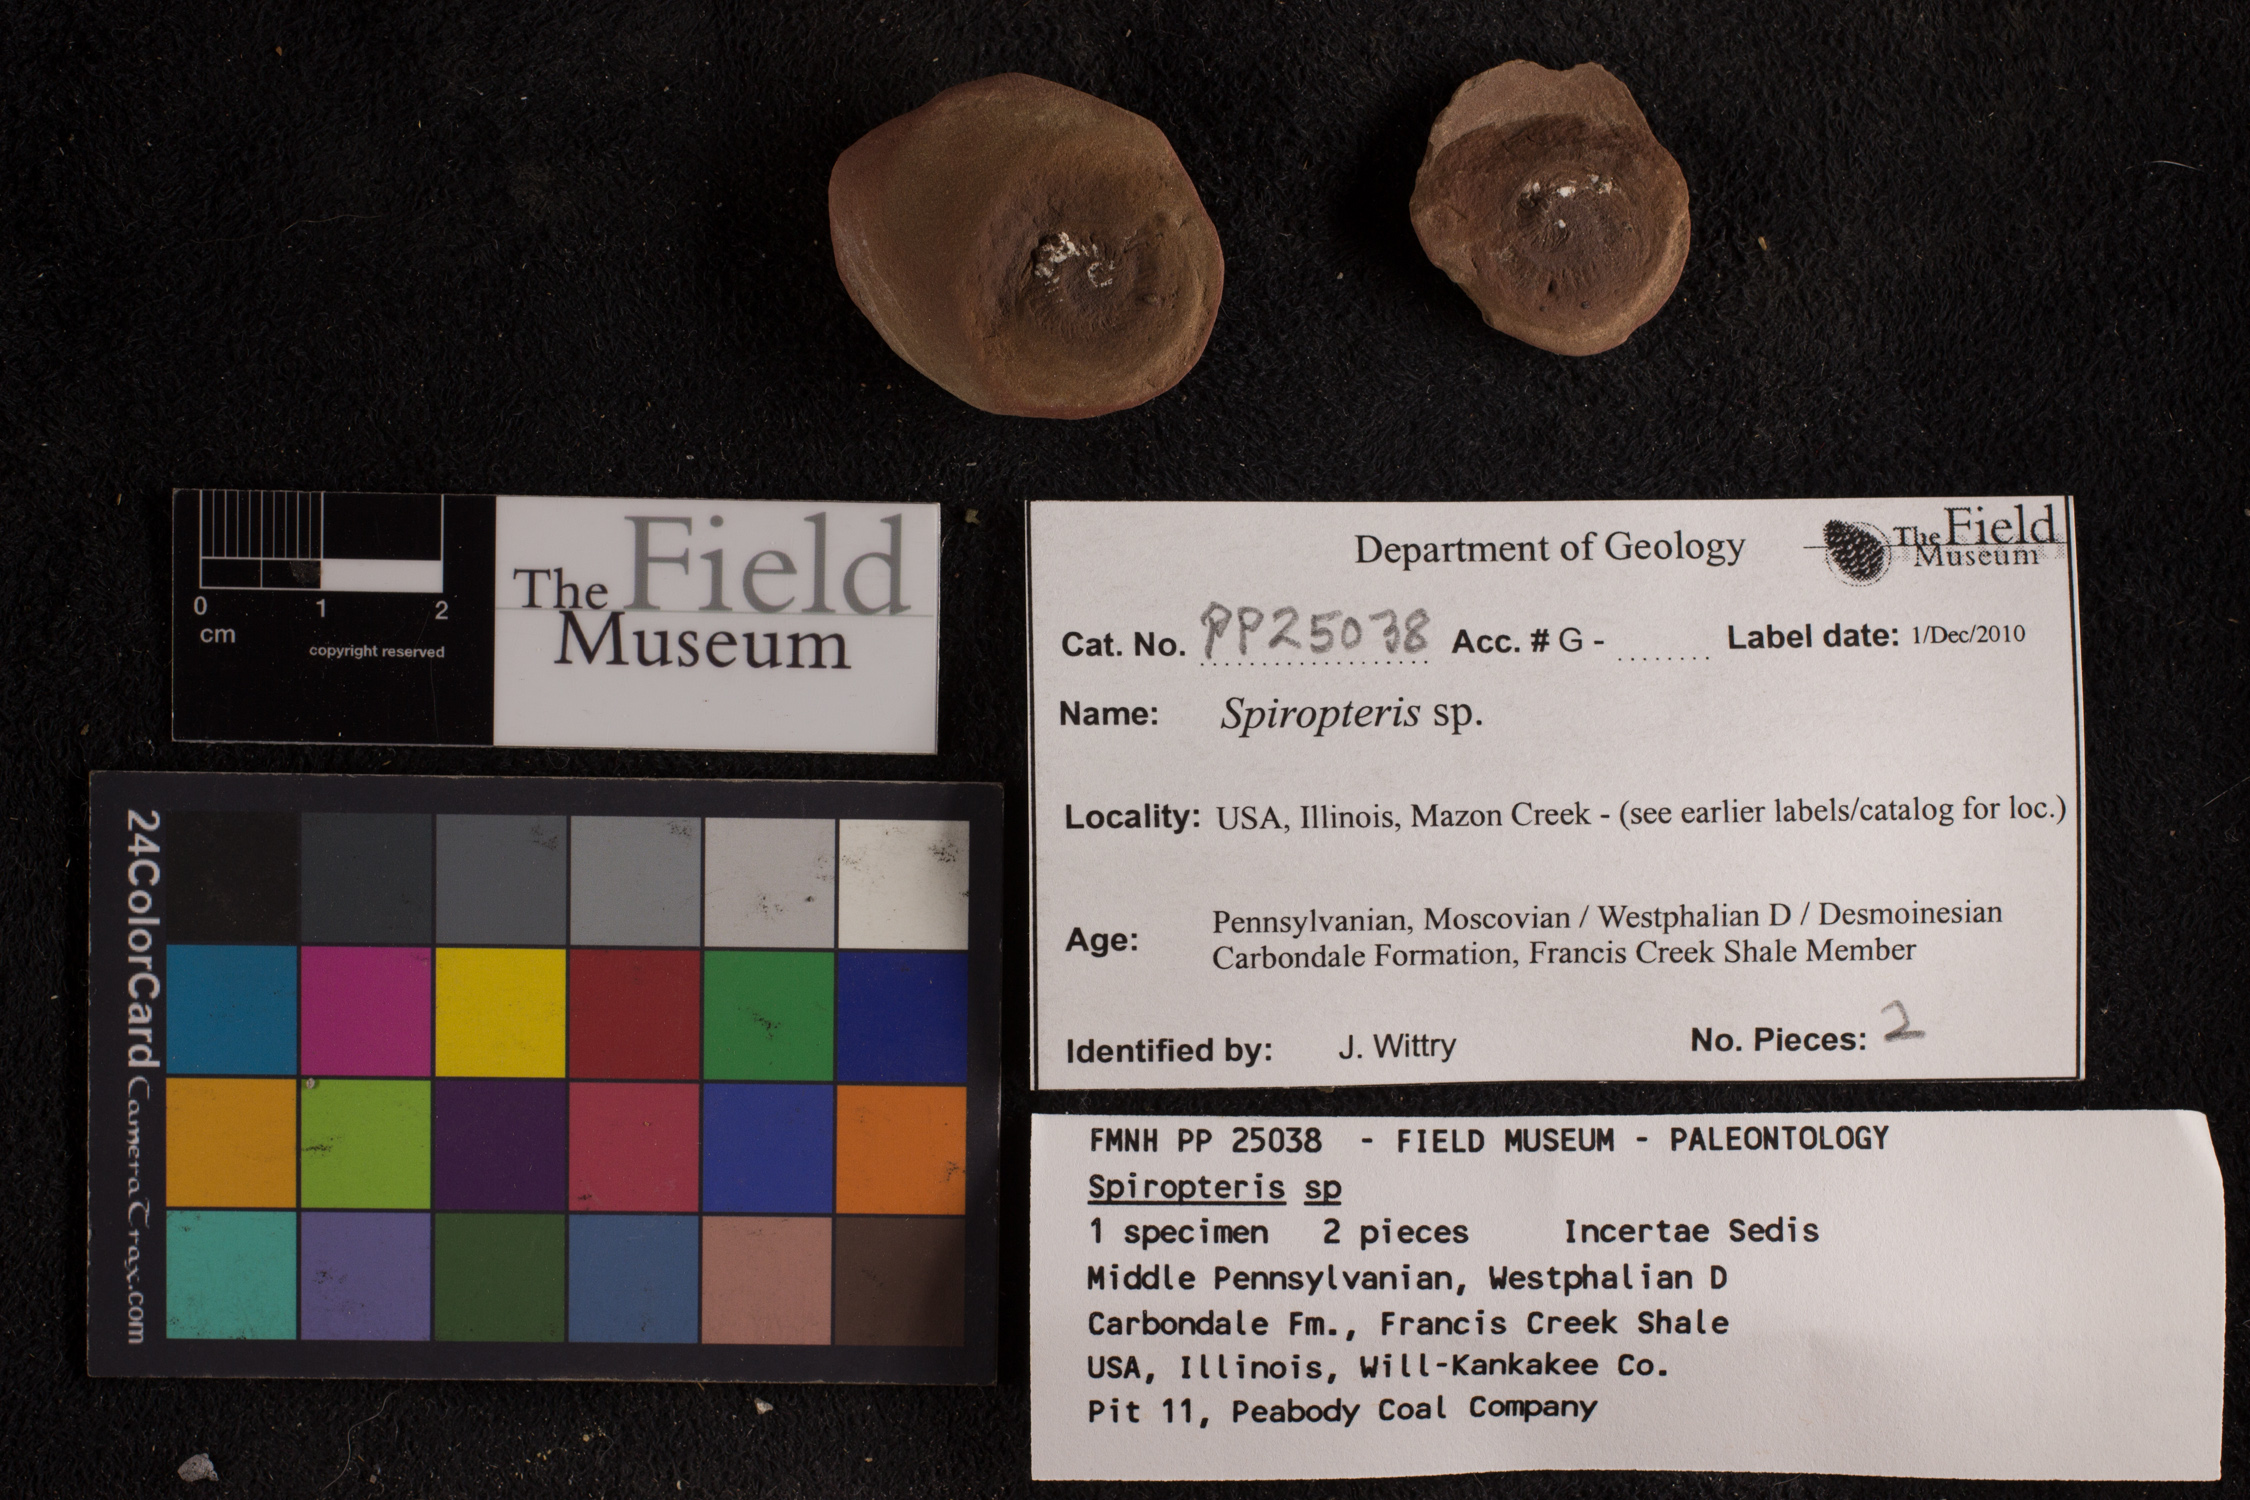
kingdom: Plantae
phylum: Tracheophyta
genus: Spiropteris
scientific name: Spiropteris
